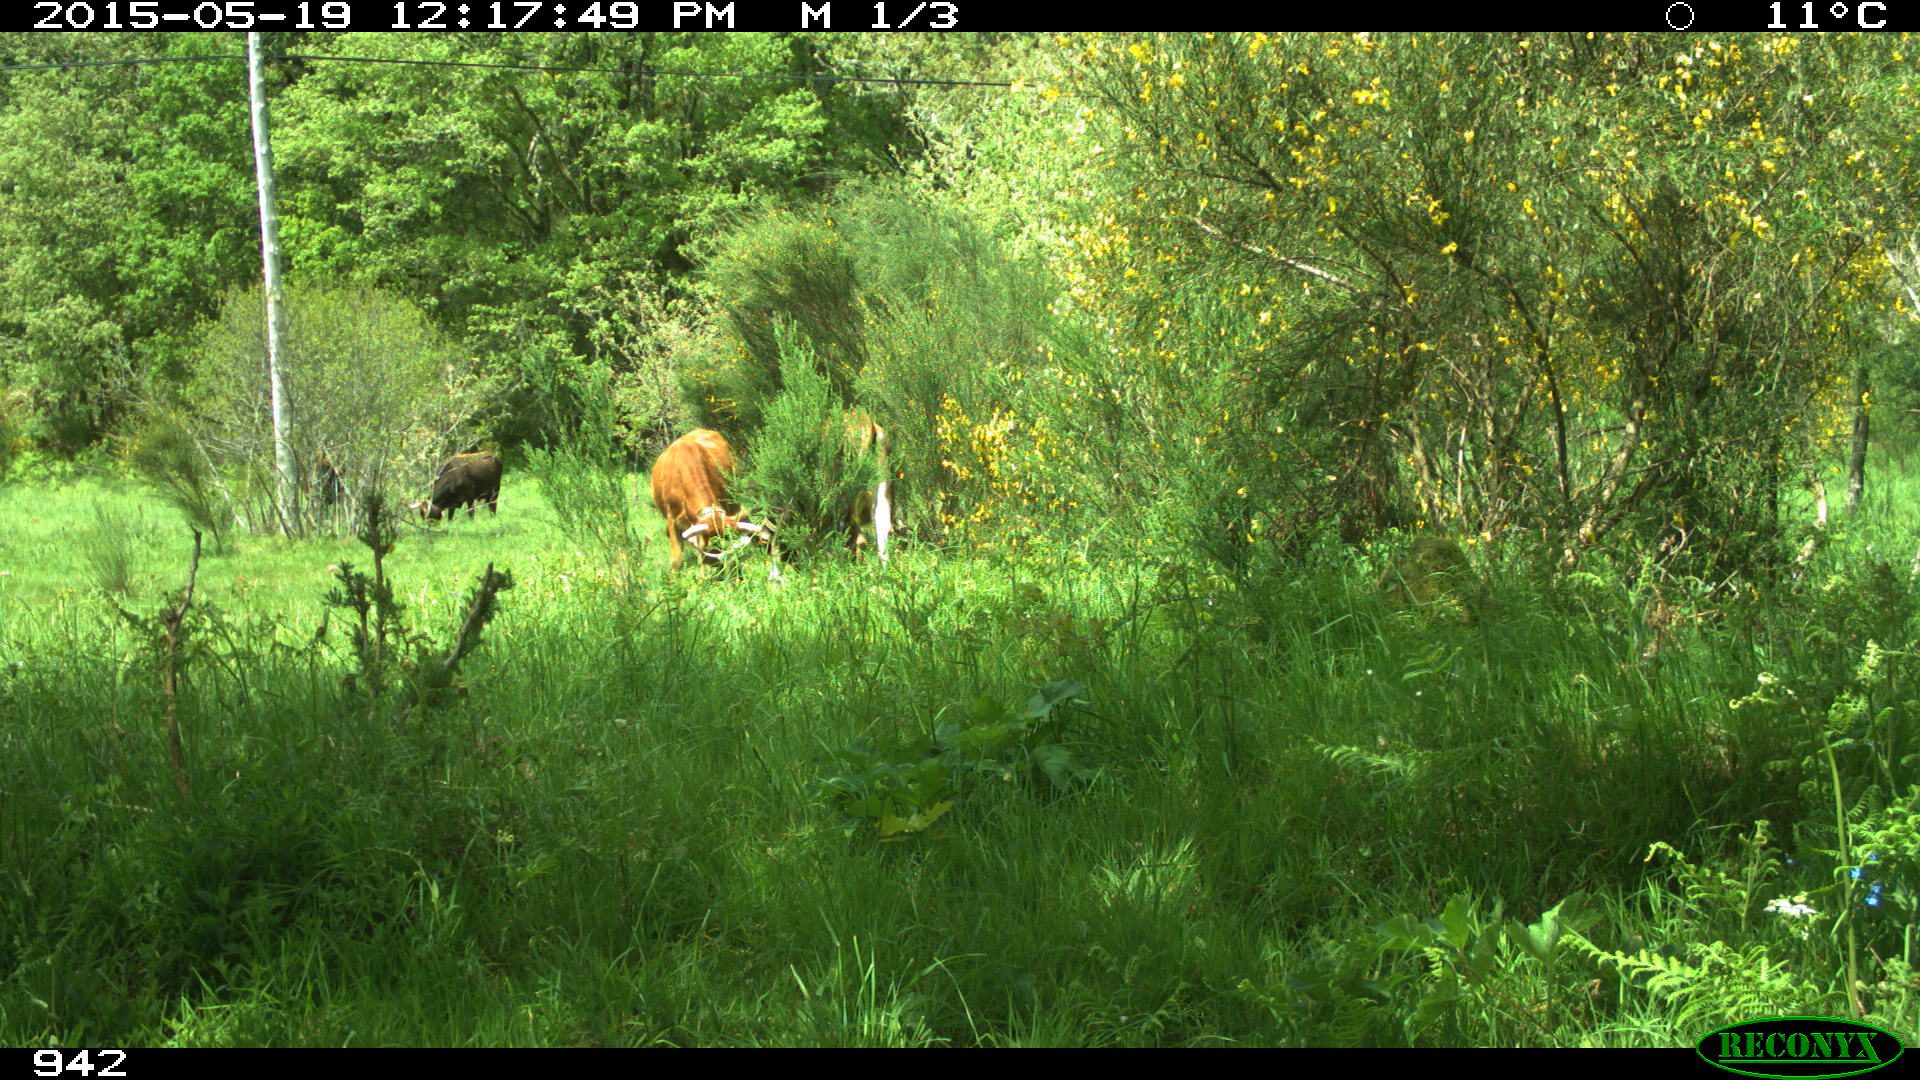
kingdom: Animalia
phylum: Chordata
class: Mammalia
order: Artiodactyla
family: Bovidae
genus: Bos
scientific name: Bos taurus
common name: Domesticated cattle
